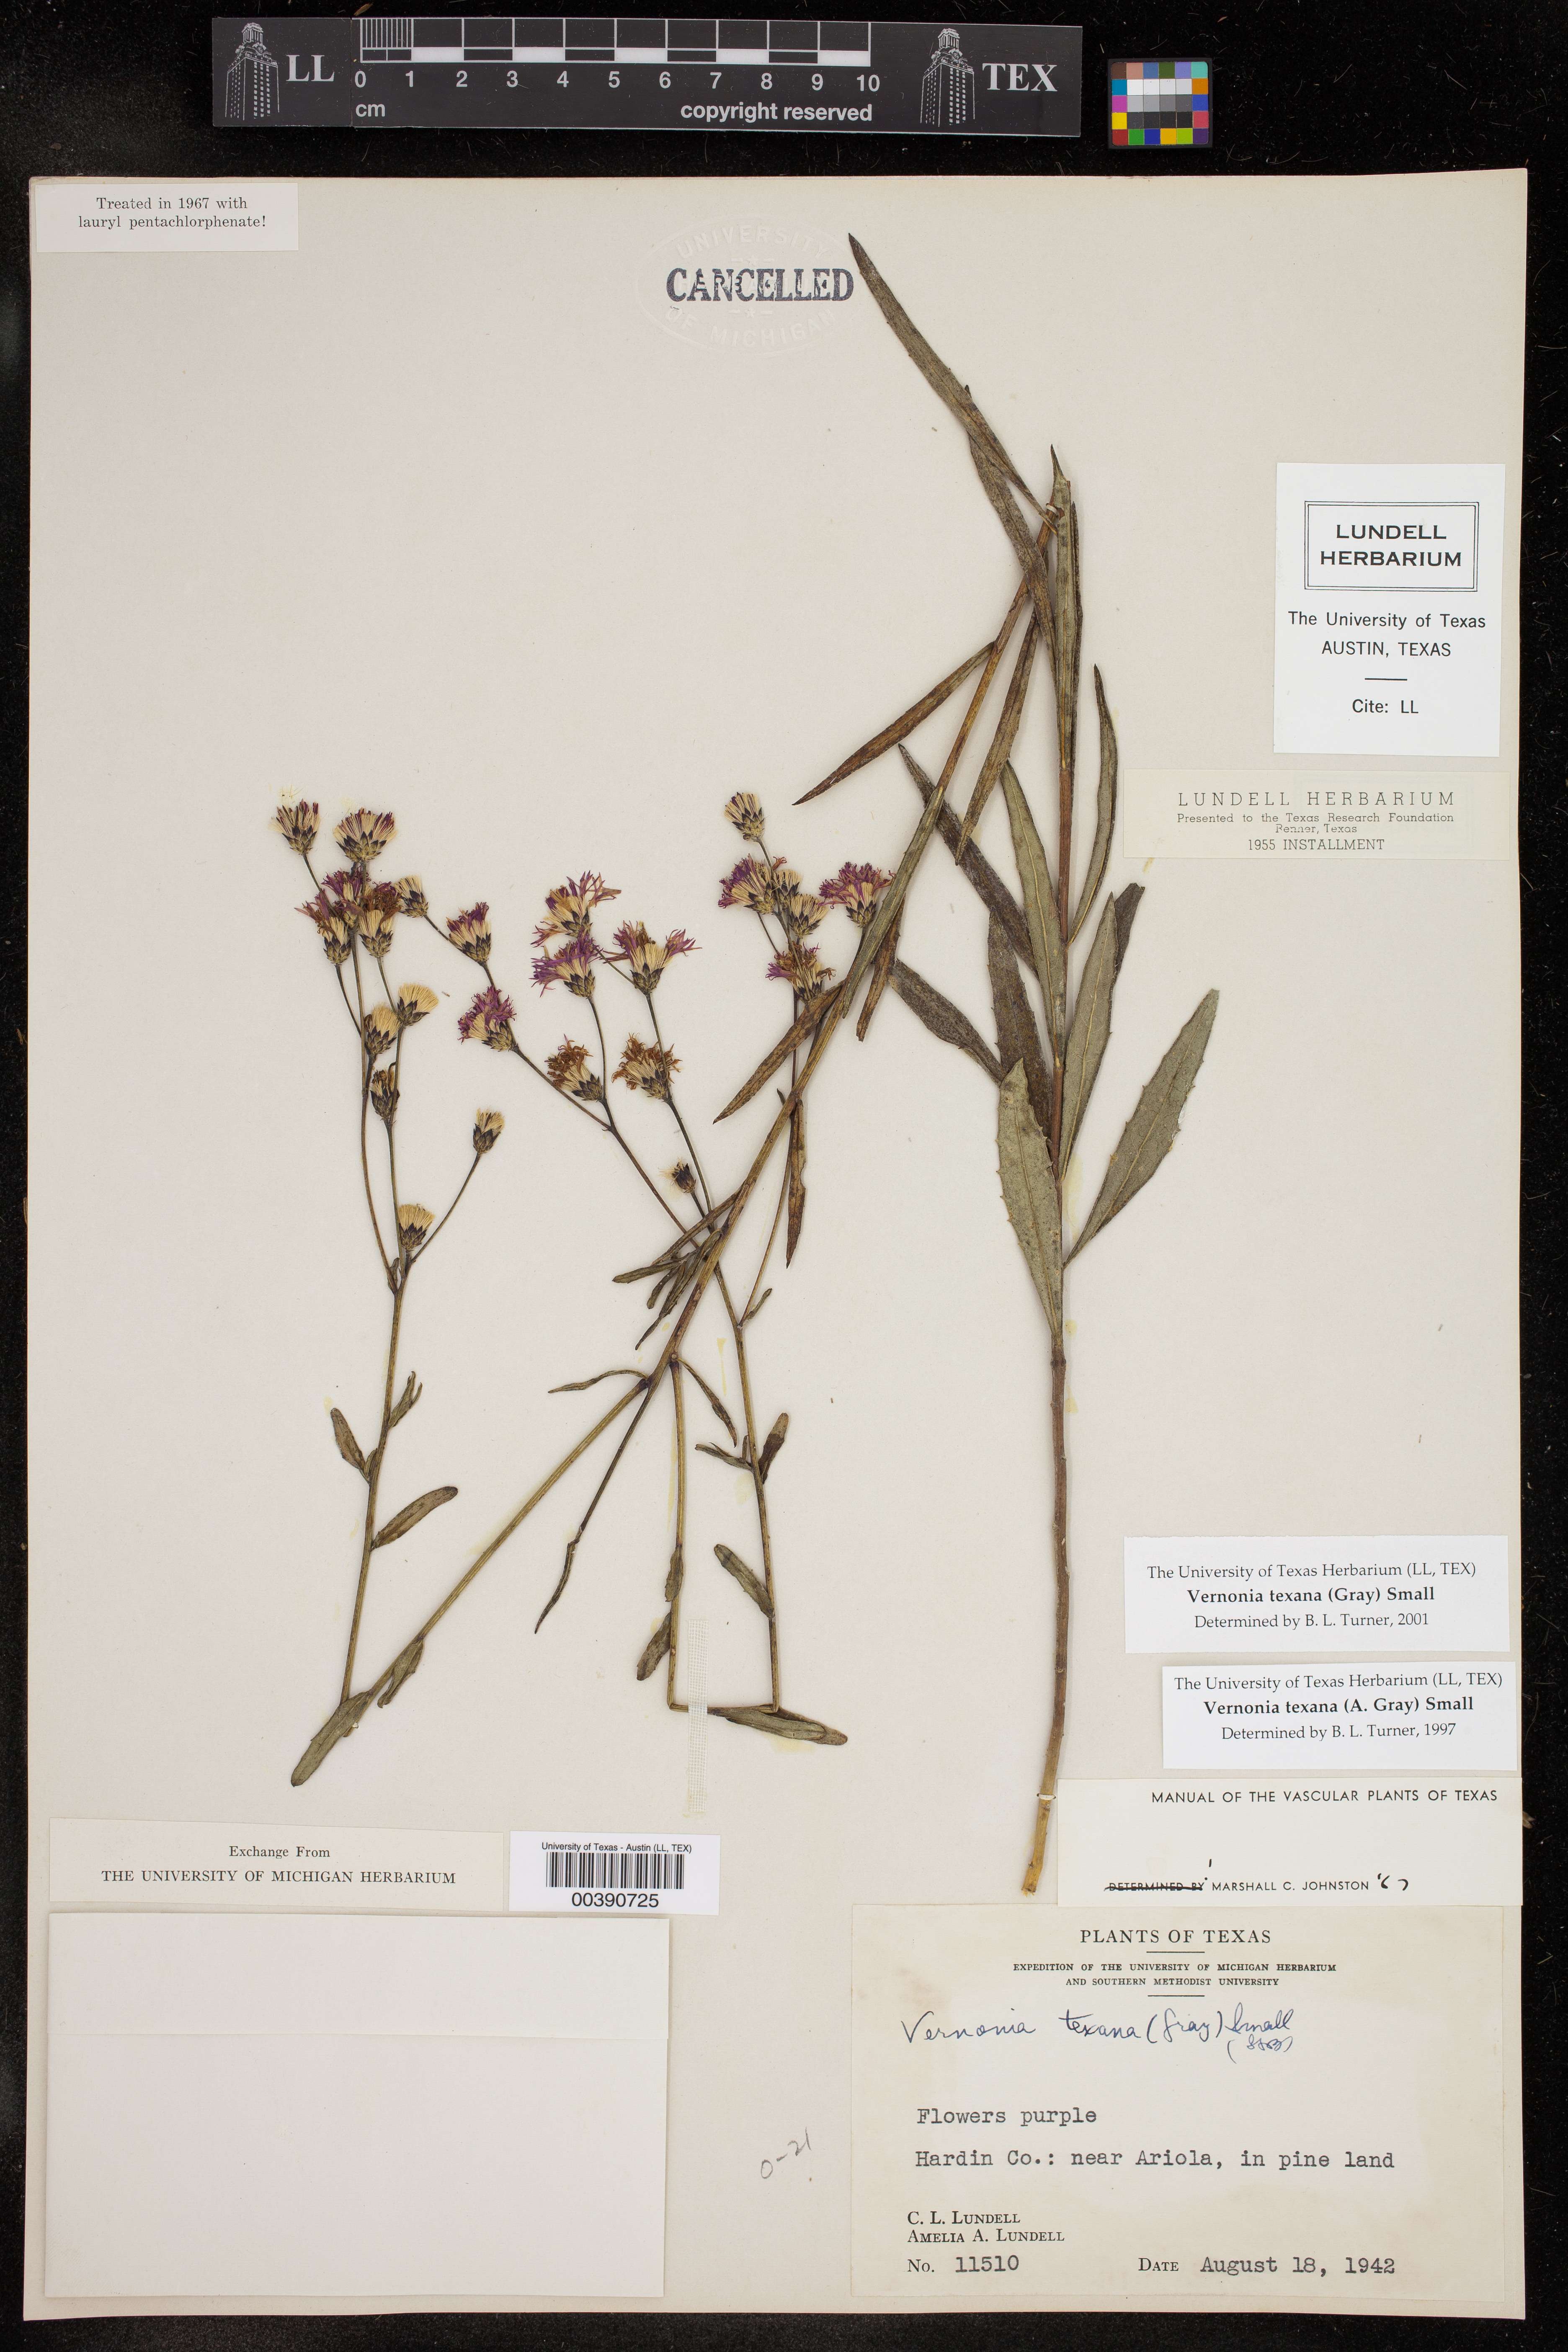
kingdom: Plantae
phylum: Tracheophyta
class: Magnoliopsida
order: Asterales
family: Asteraceae
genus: Vernonia
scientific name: Vernonia texana
